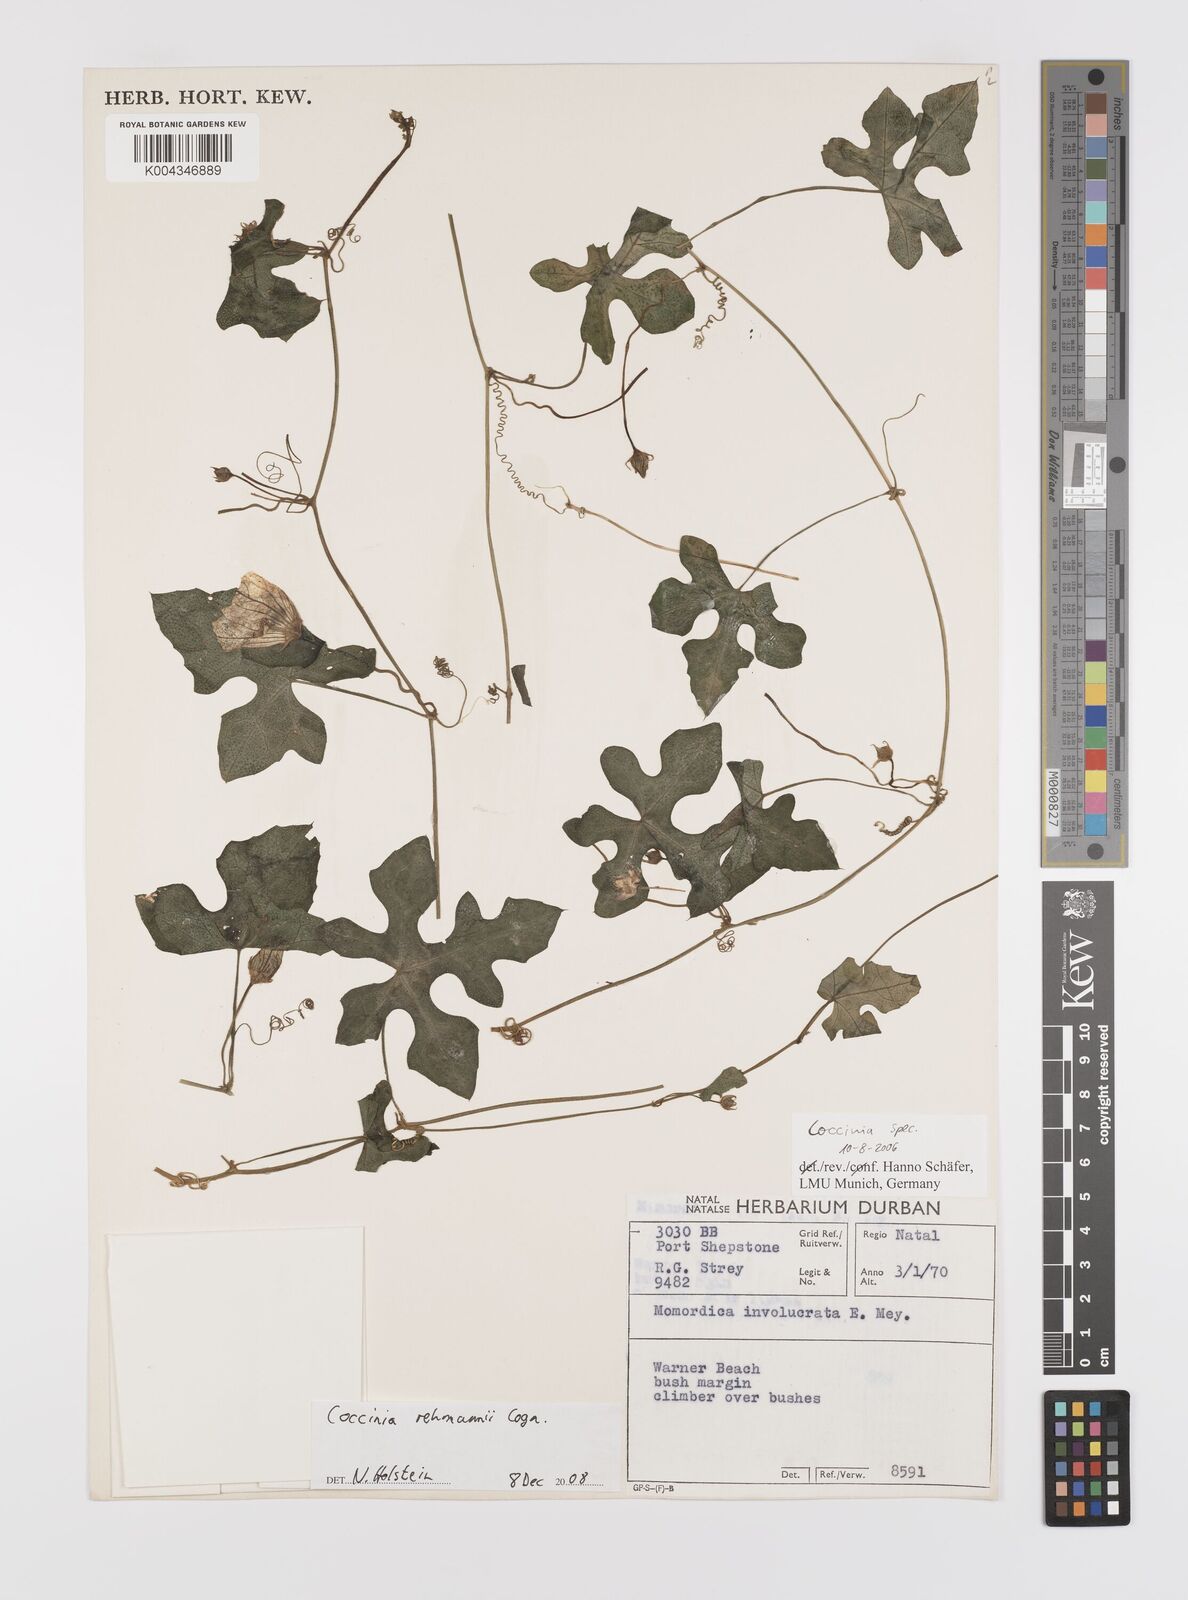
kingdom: Plantae
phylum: Tracheophyta
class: Magnoliopsida
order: Cucurbitales
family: Cucurbitaceae
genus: Coccinia
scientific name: Coccinia rehmannii
